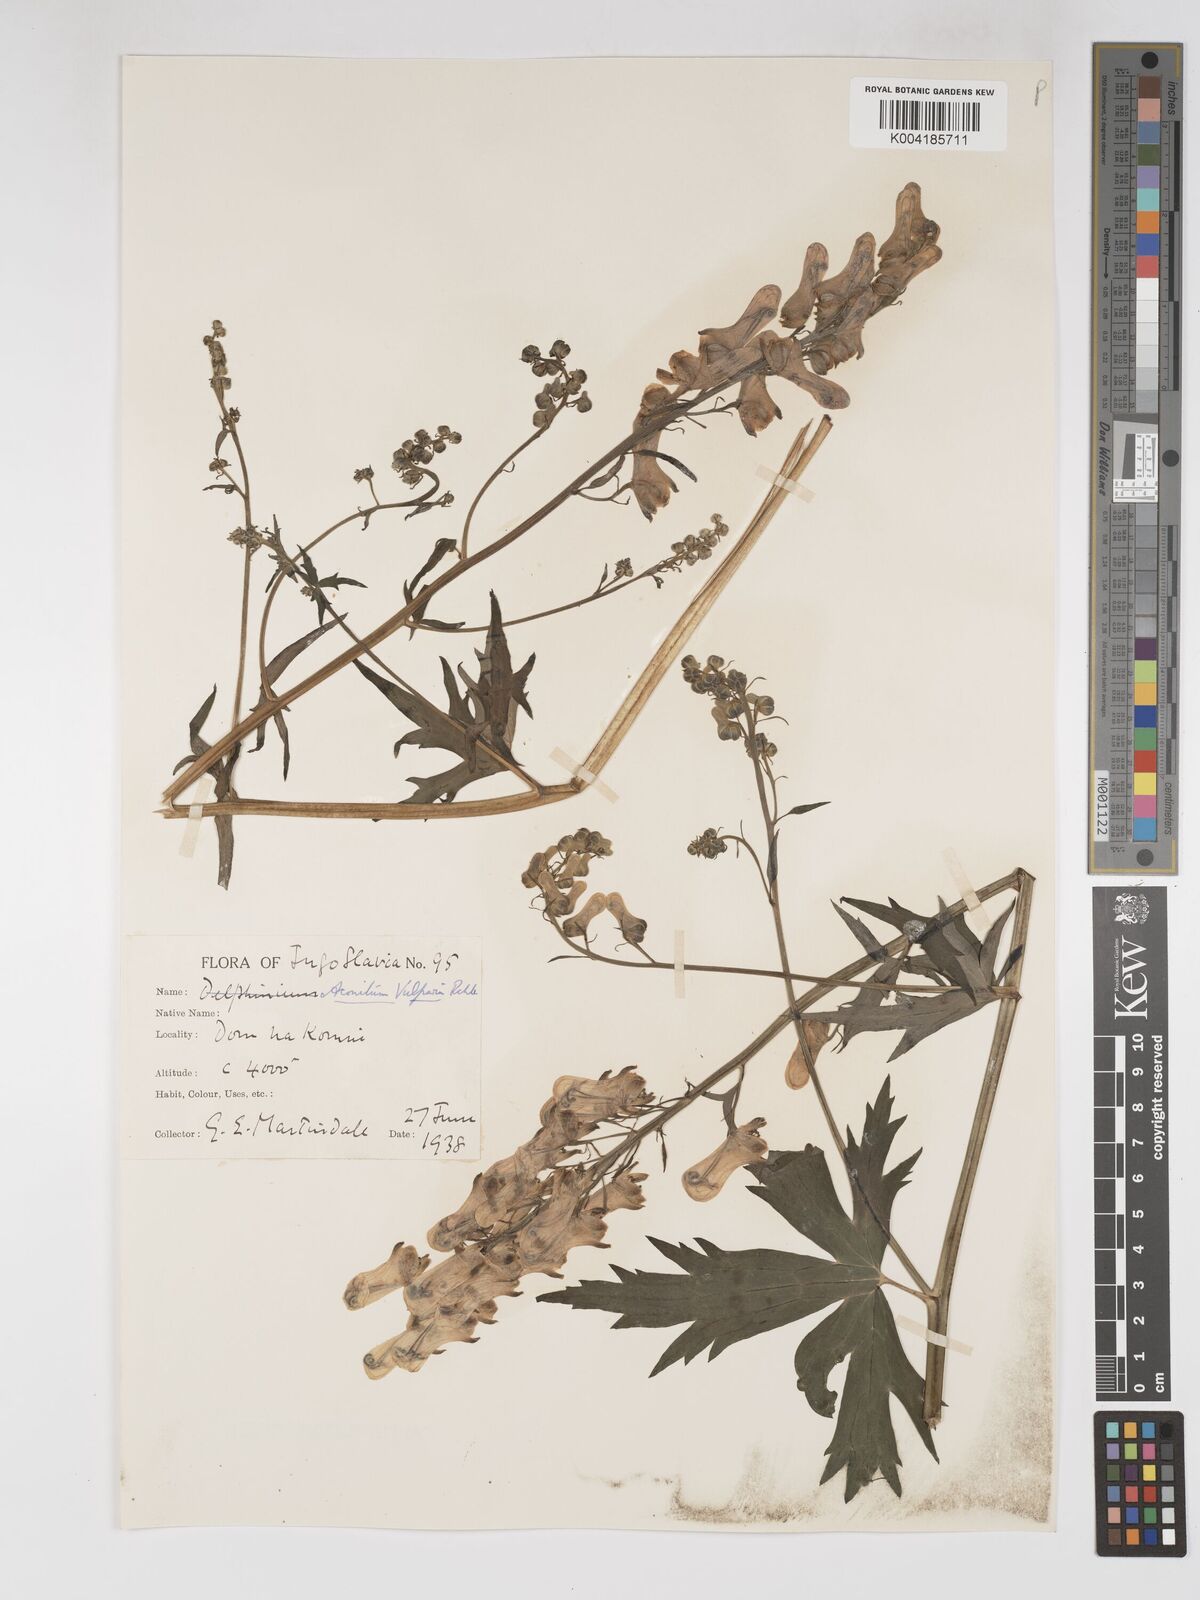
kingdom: Plantae
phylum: Tracheophyta
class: Magnoliopsida
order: Ranunculales
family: Ranunculaceae
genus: Aconitum
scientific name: Aconitum lycoctonum
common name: Wolf's-bane
